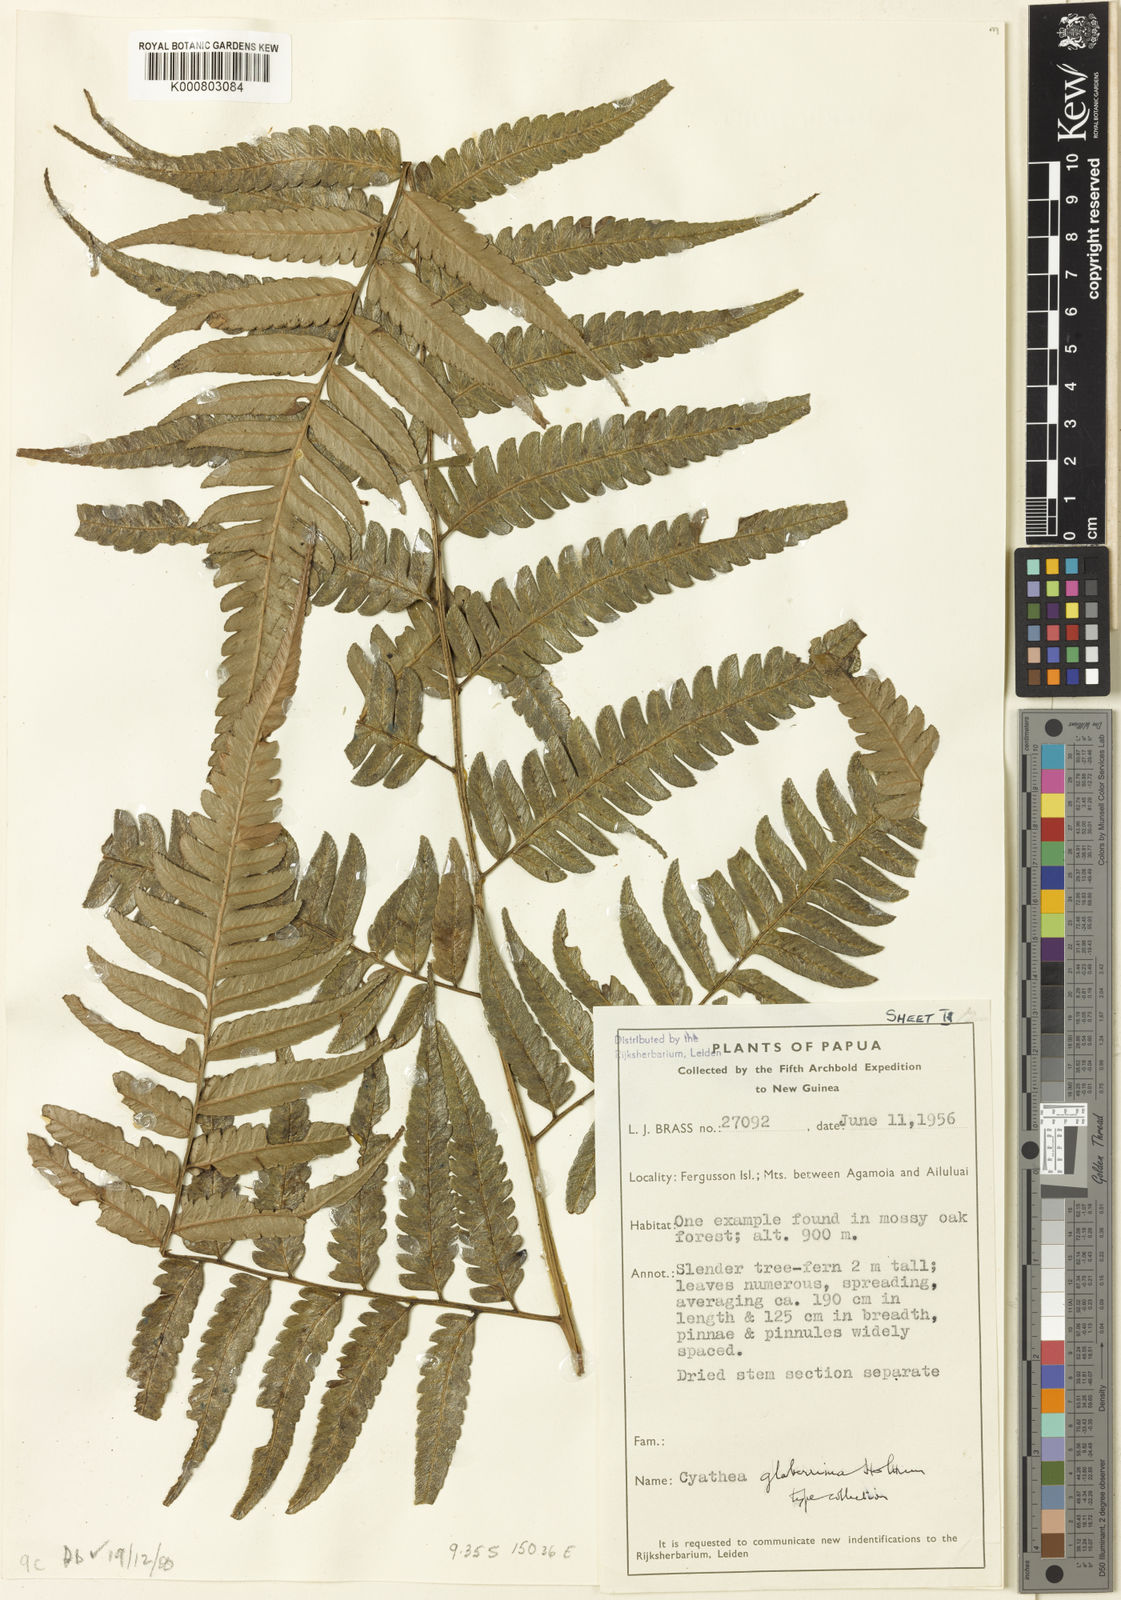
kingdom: Plantae
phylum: Tracheophyta
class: Polypodiopsida
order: Cyatheales
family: Cyatheaceae
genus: Alsophila
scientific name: Alsophila glaberrima
